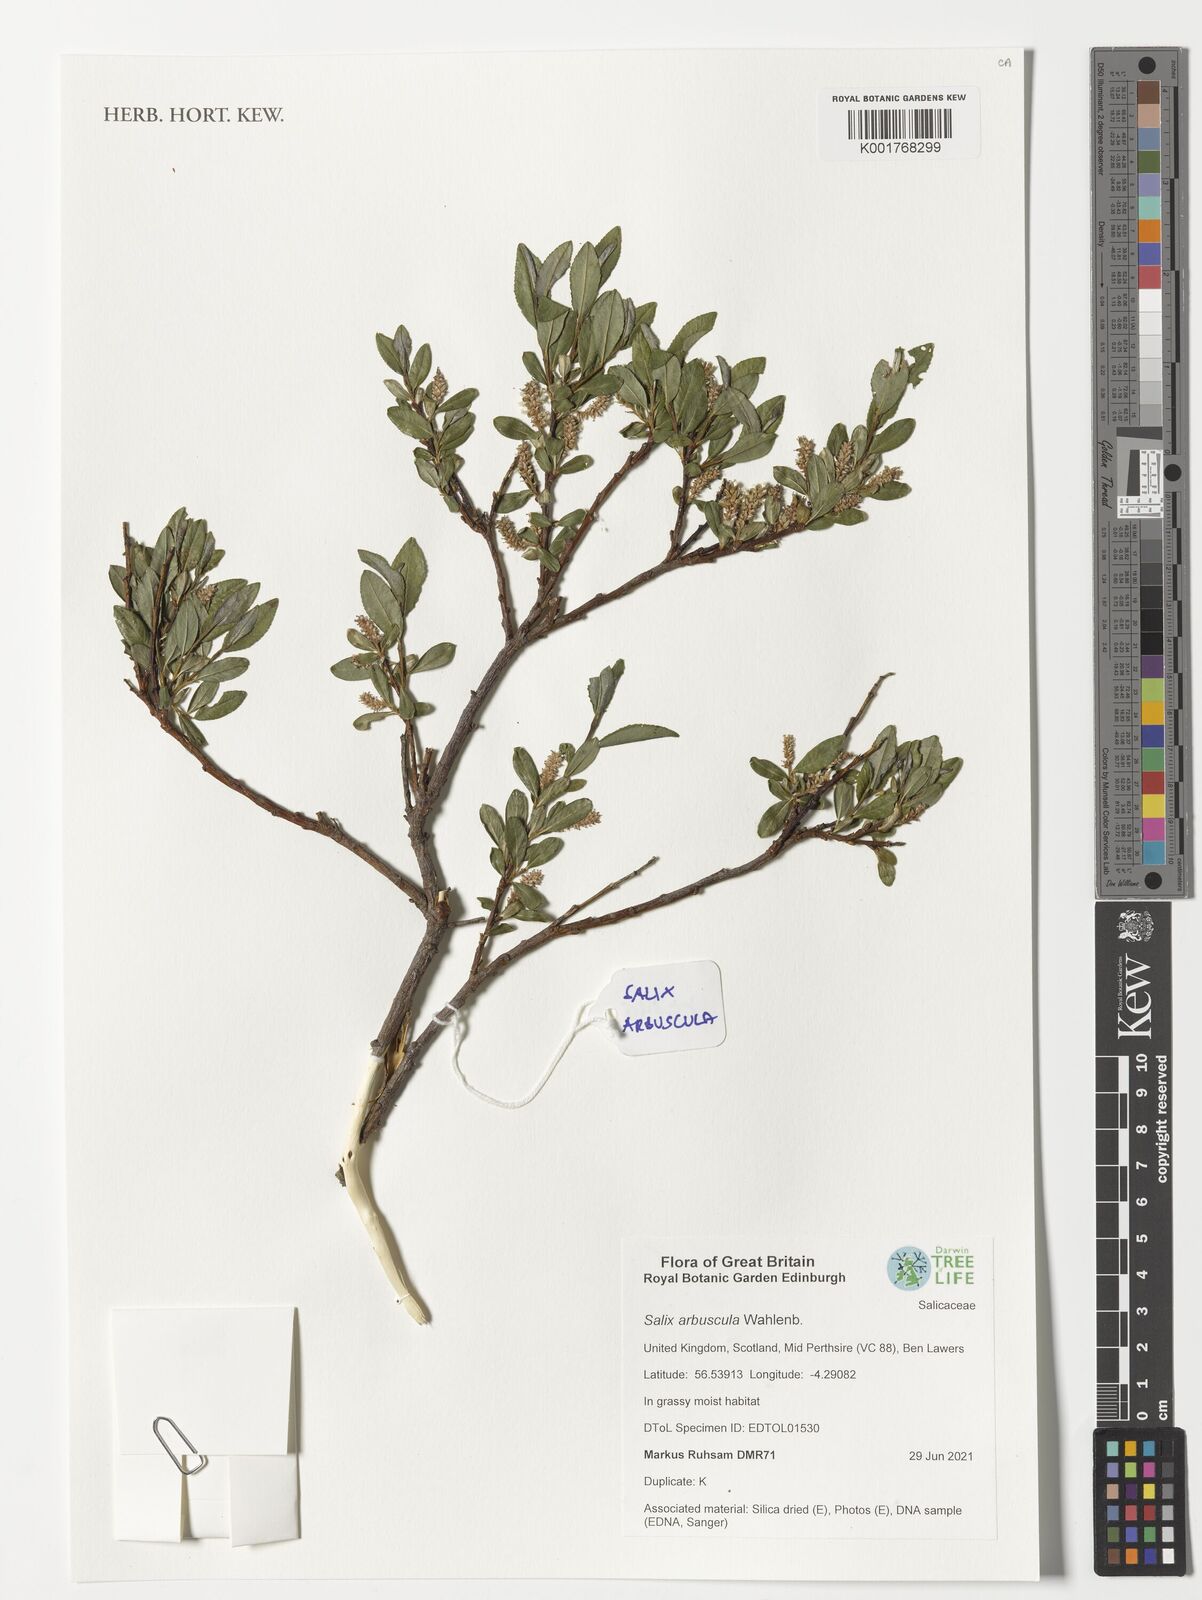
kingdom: Plantae
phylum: Tracheophyta
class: Magnoliopsida
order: Malpighiales
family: Salicaceae
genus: Salix
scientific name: Salix phylicifolia
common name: Tea-leaved willow
